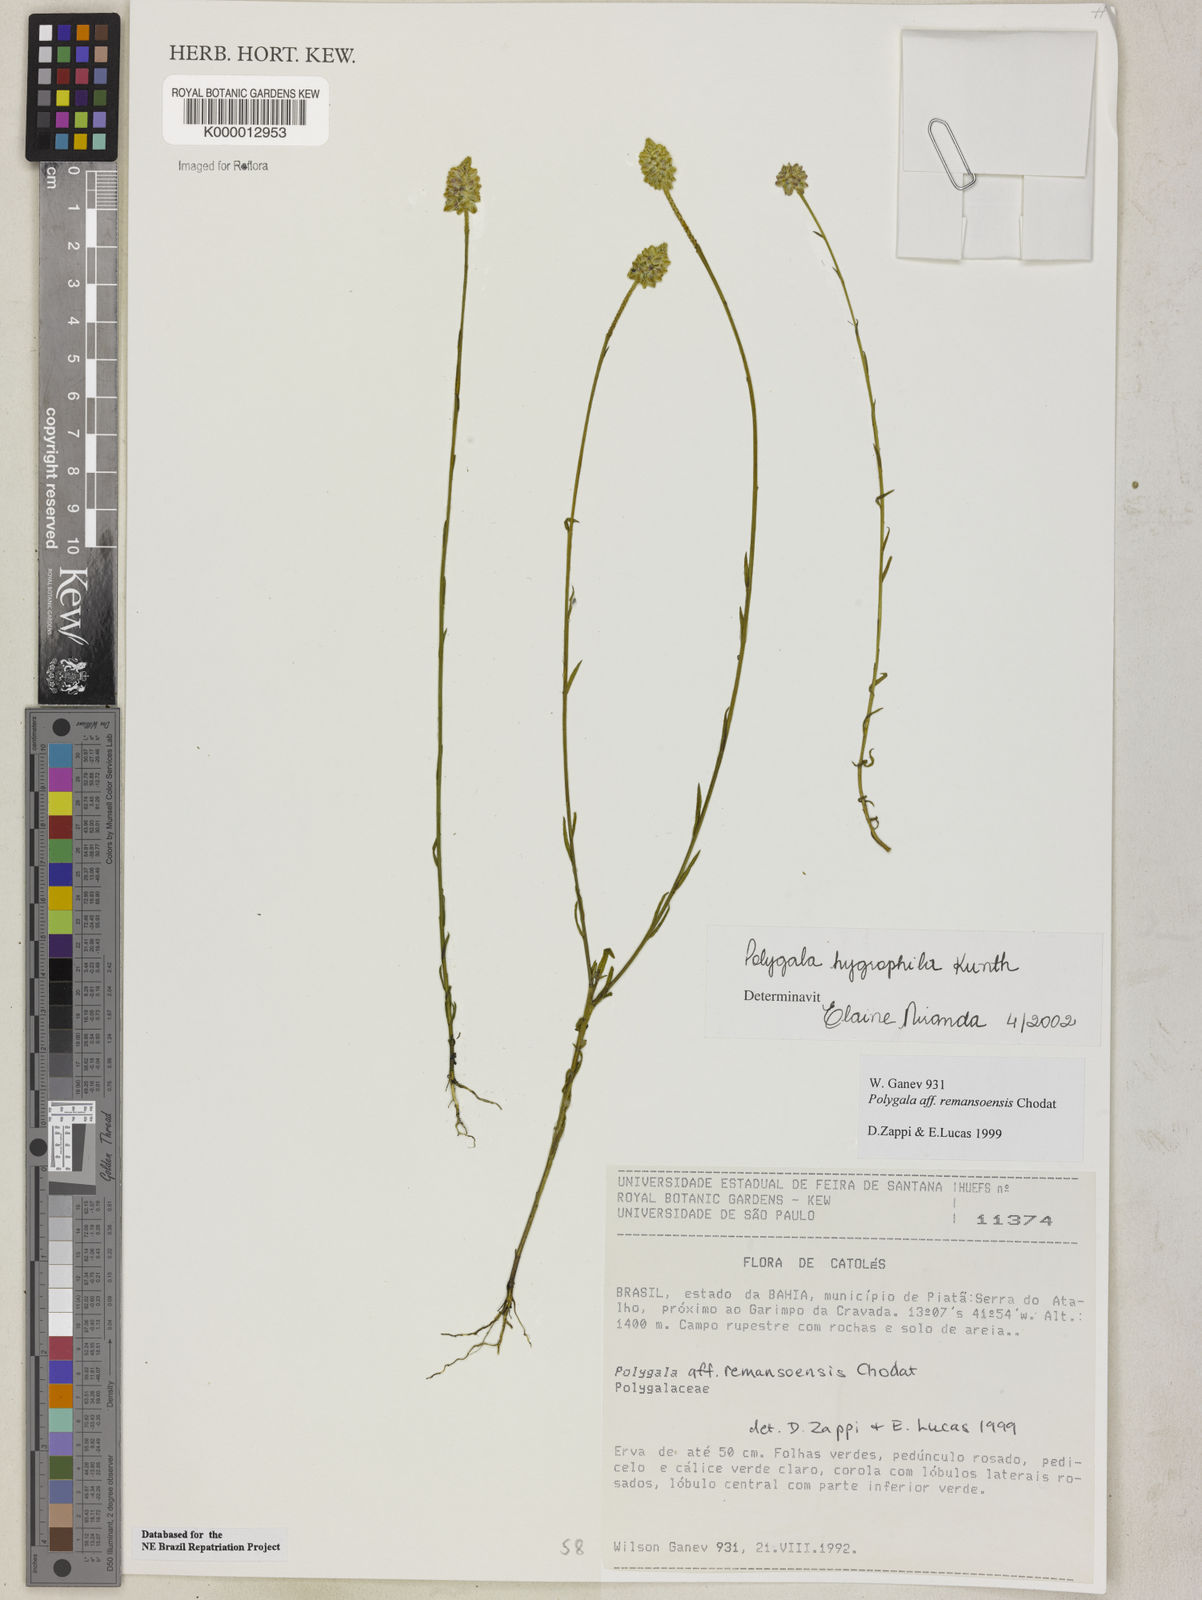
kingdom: Plantae
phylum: Tracheophyta
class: Magnoliopsida
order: Fabales
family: Polygalaceae
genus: Polygala
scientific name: Polygala hygrophila
